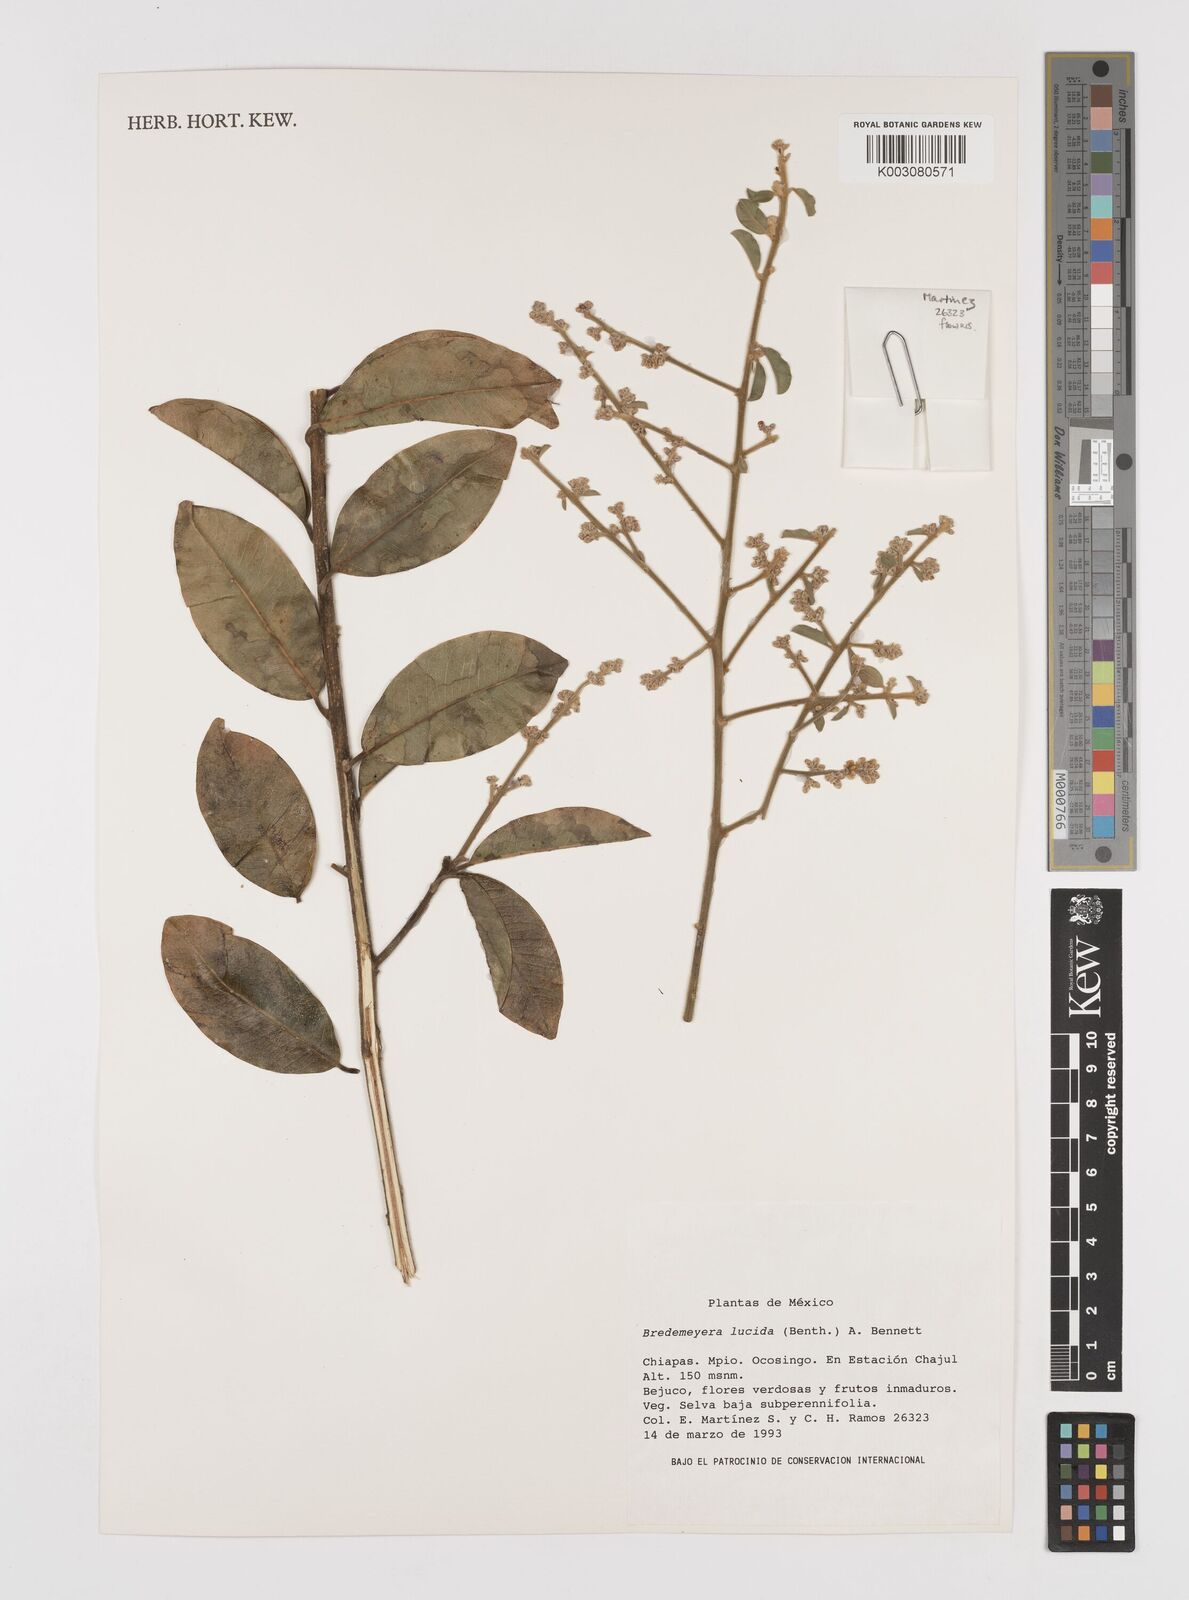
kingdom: Plantae
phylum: Tracheophyta
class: Magnoliopsida
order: Fabales
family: Polygalaceae
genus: Bredemeyera
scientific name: Bredemeyera lucida
